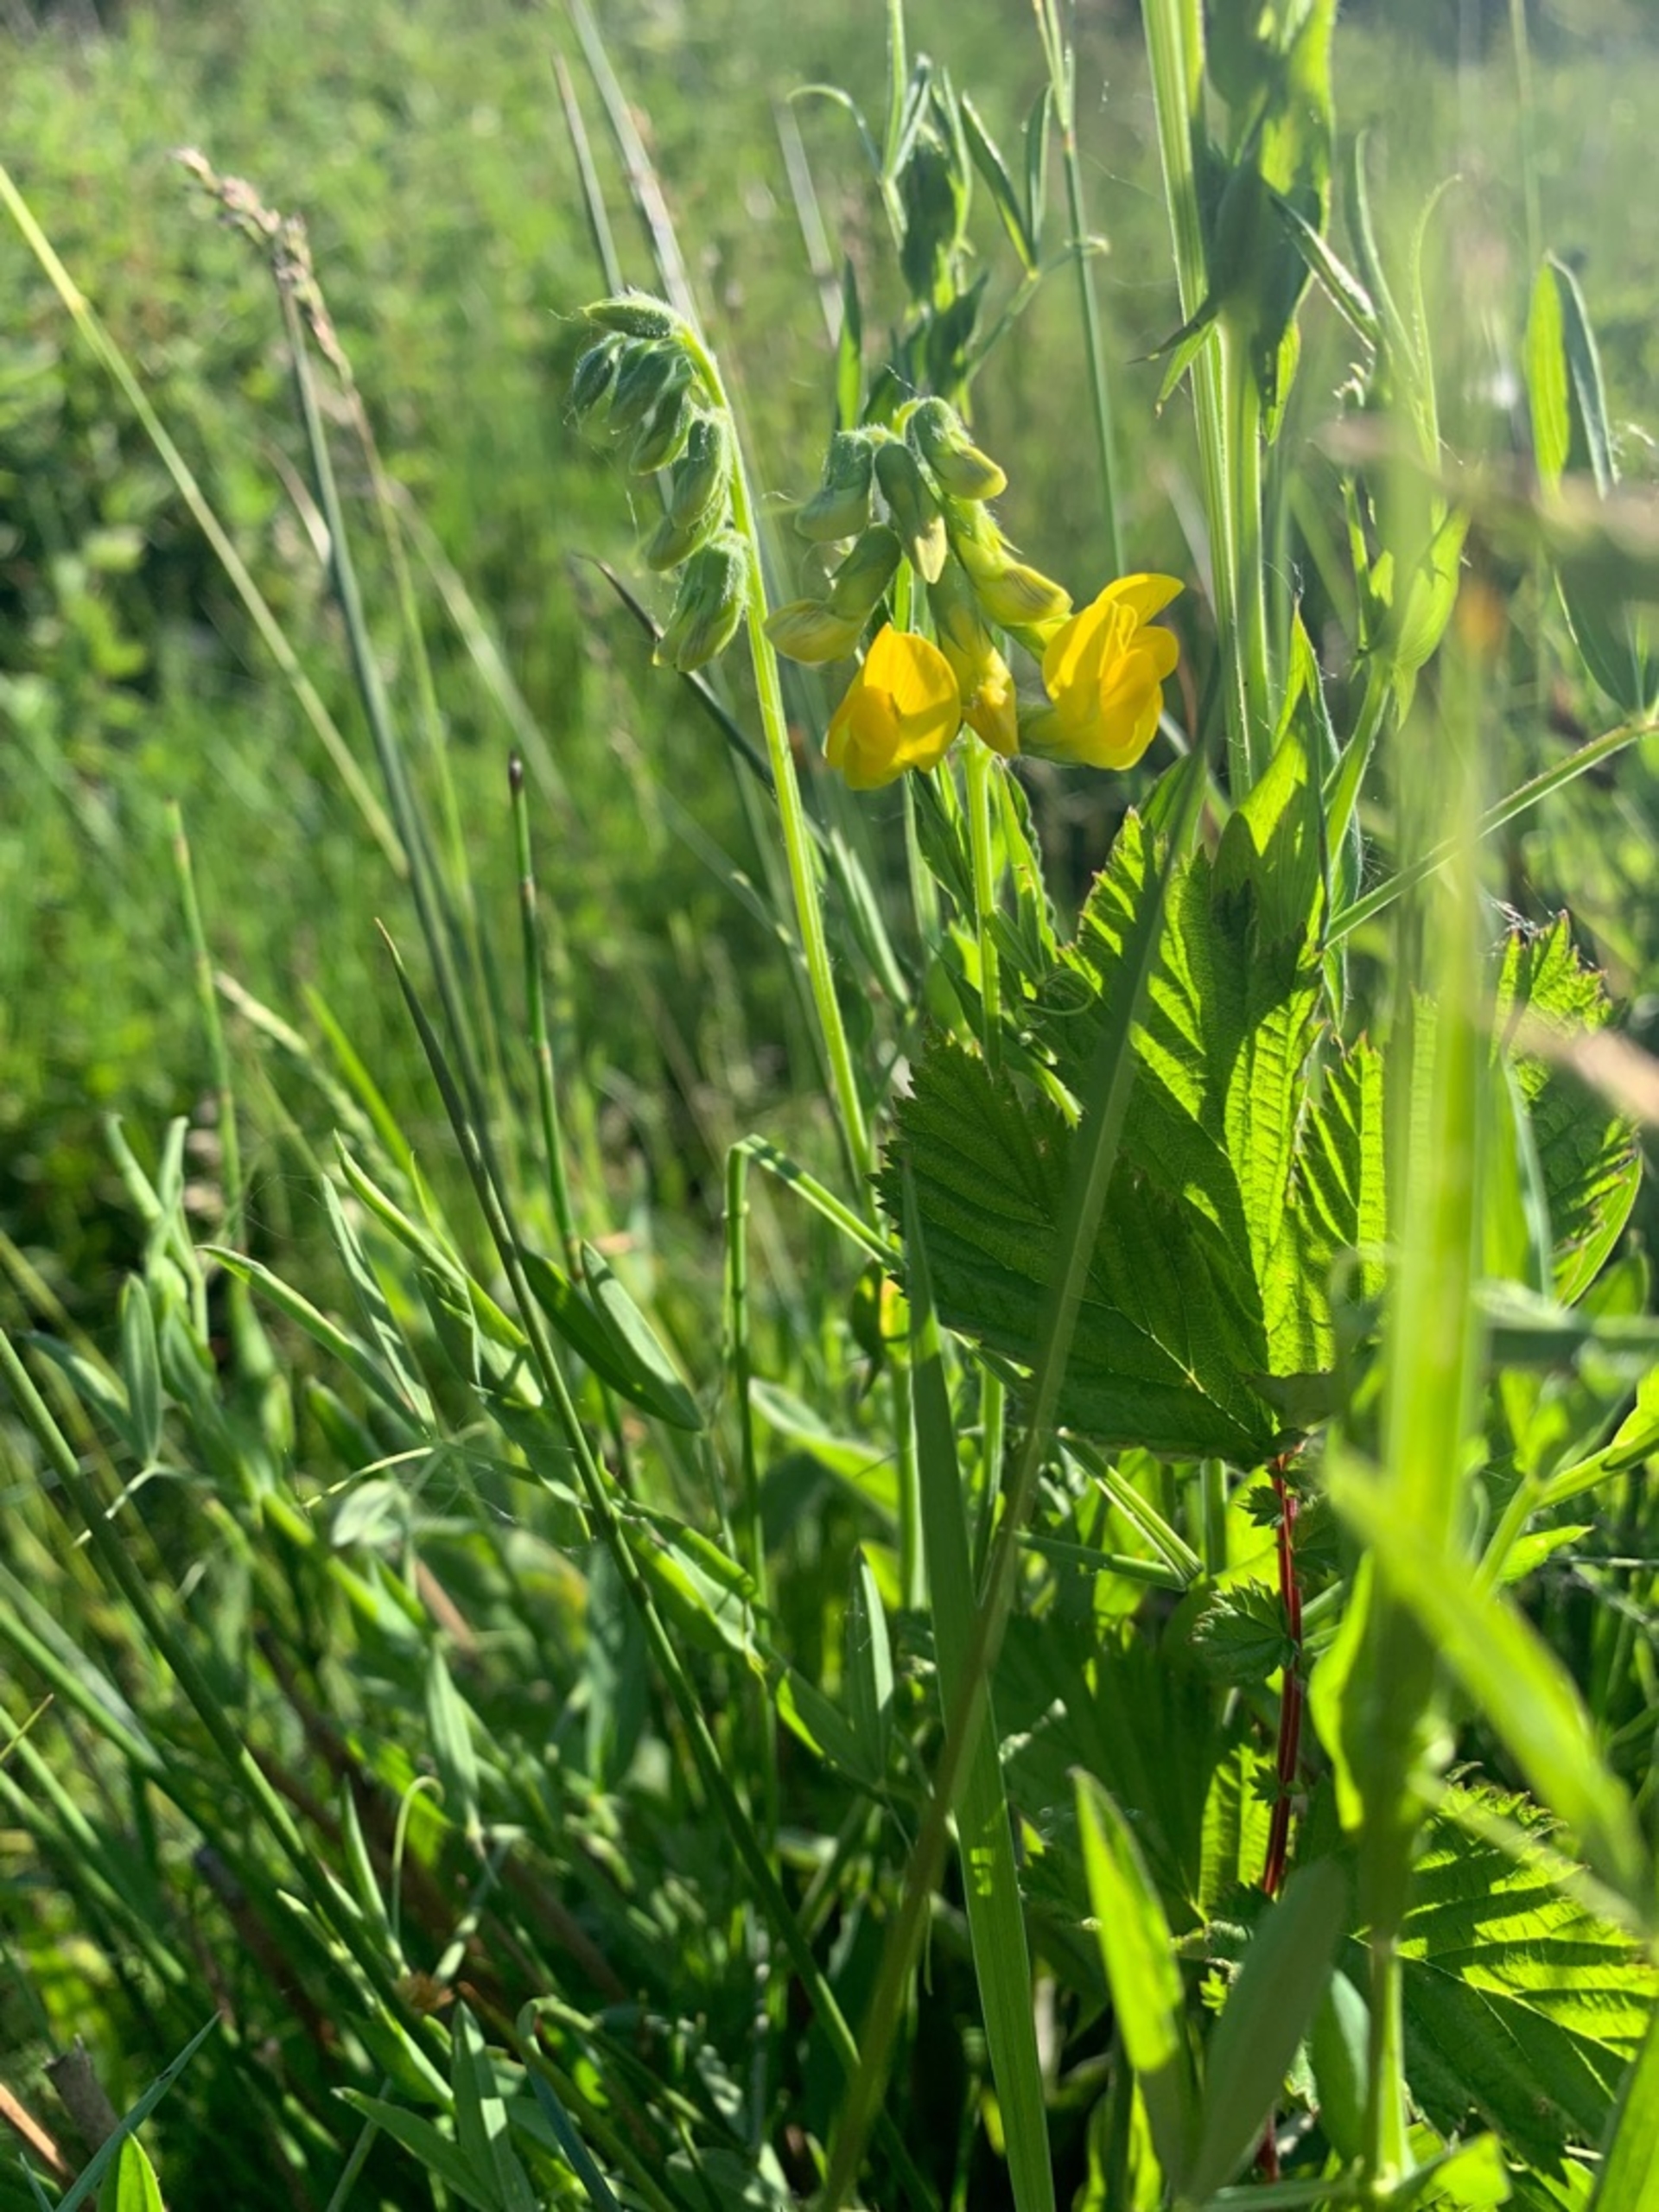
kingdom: Plantae
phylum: Tracheophyta
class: Magnoliopsida
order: Fabales
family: Fabaceae
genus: Lathyrus
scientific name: Lathyrus pratensis
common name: Gul fladbælg
